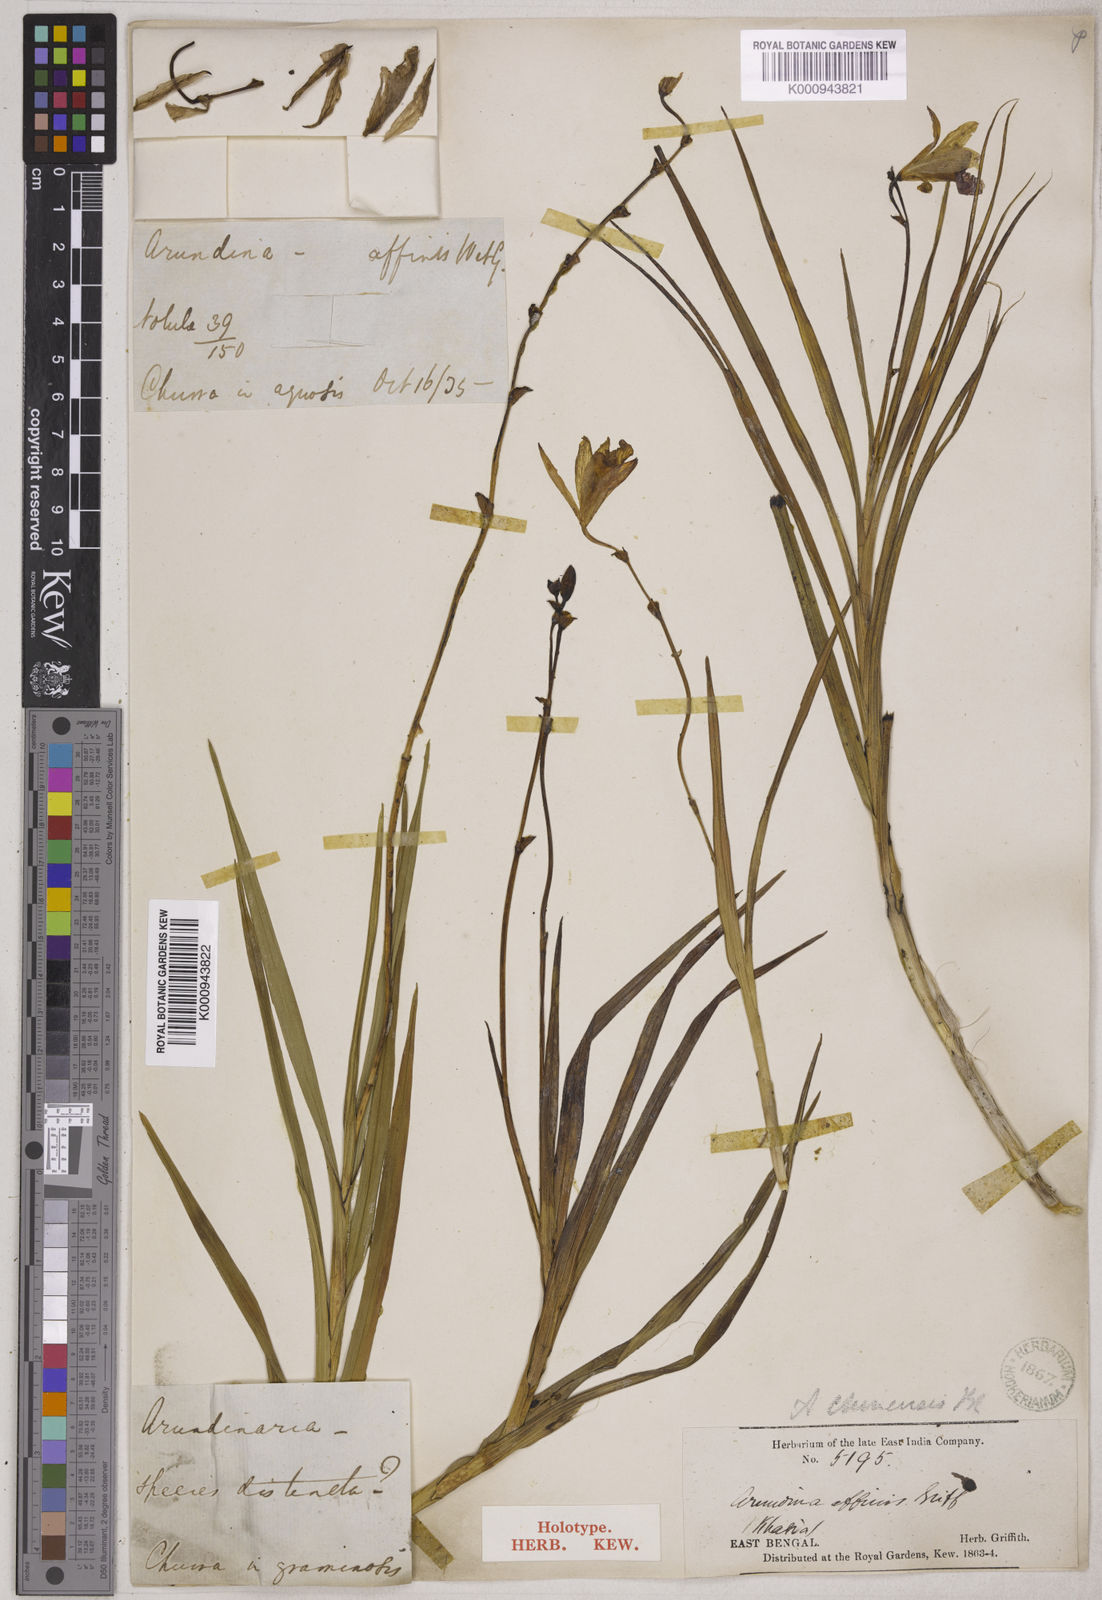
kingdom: Plantae
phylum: Tracheophyta
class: Liliopsida
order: Asparagales
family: Orchidaceae
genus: Arundina
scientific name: Arundina graminifolia
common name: Bamboo orchid
